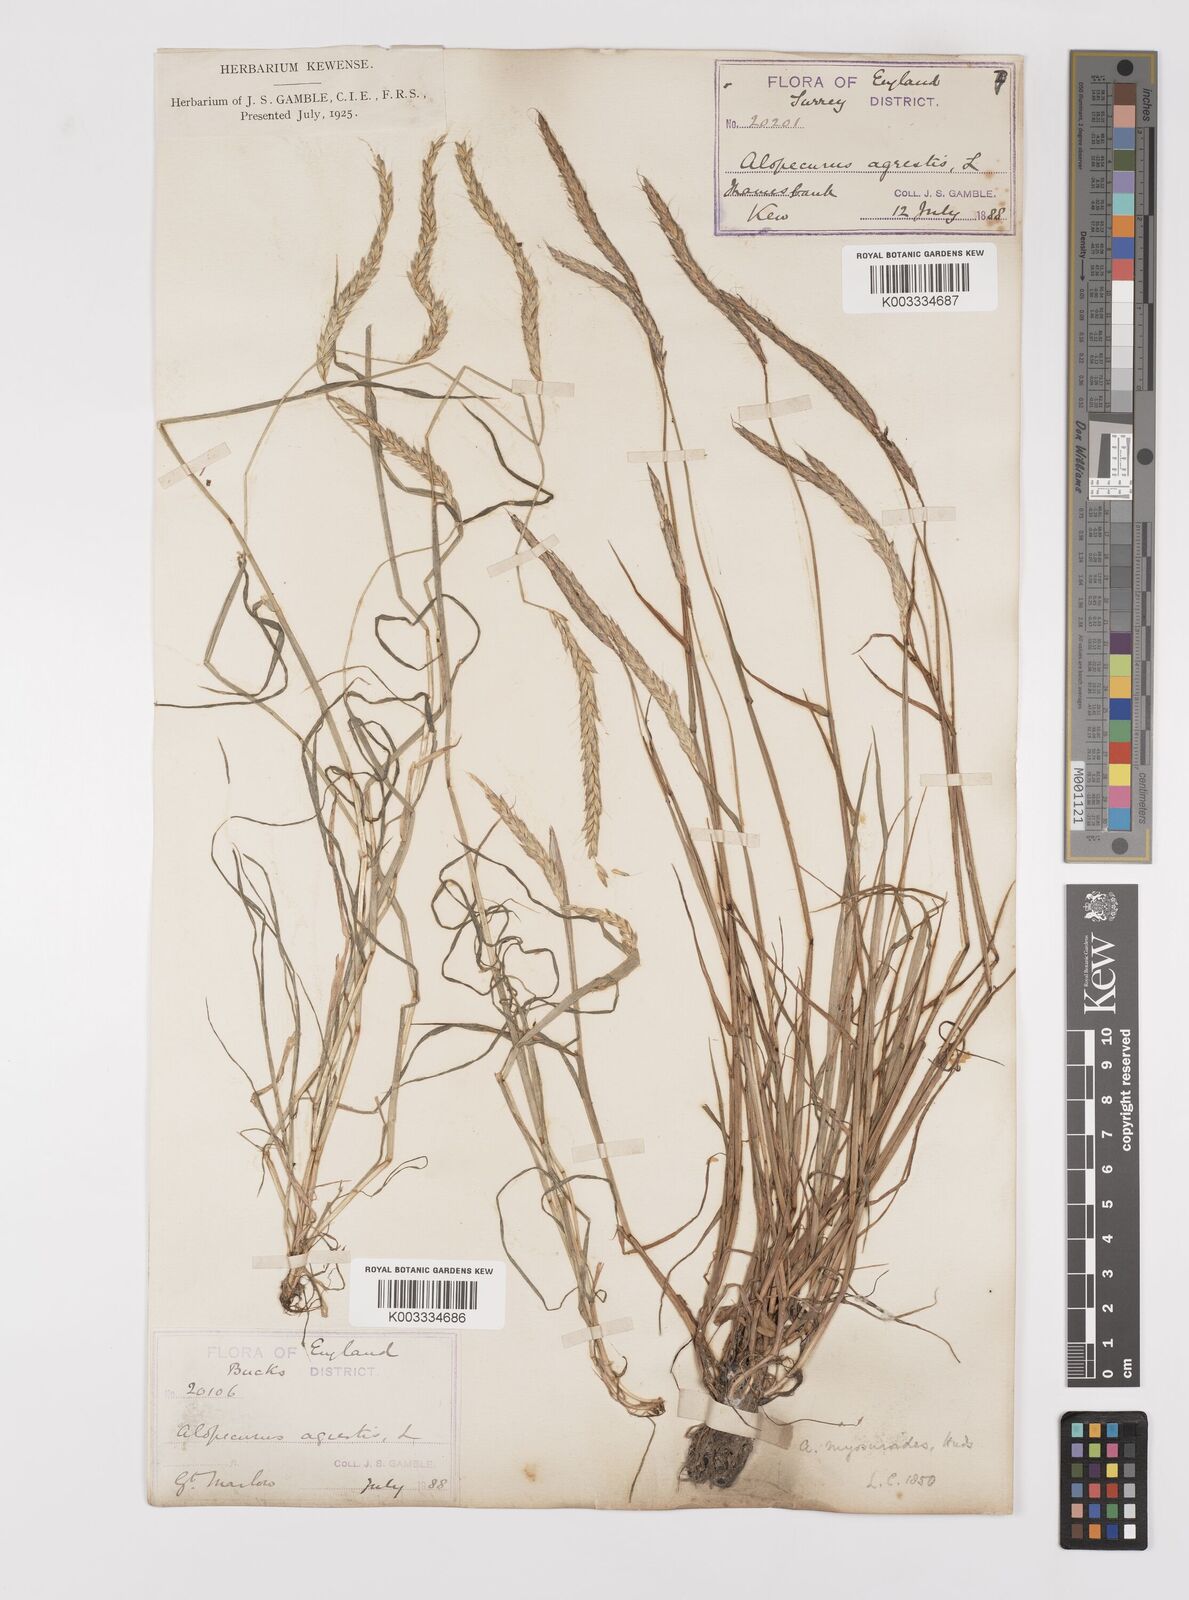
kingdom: Plantae
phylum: Tracheophyta
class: Liliopsida
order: Poales
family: Poaceae
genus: Alopecurus
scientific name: Alopecurus myosuroides
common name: Black-grass
